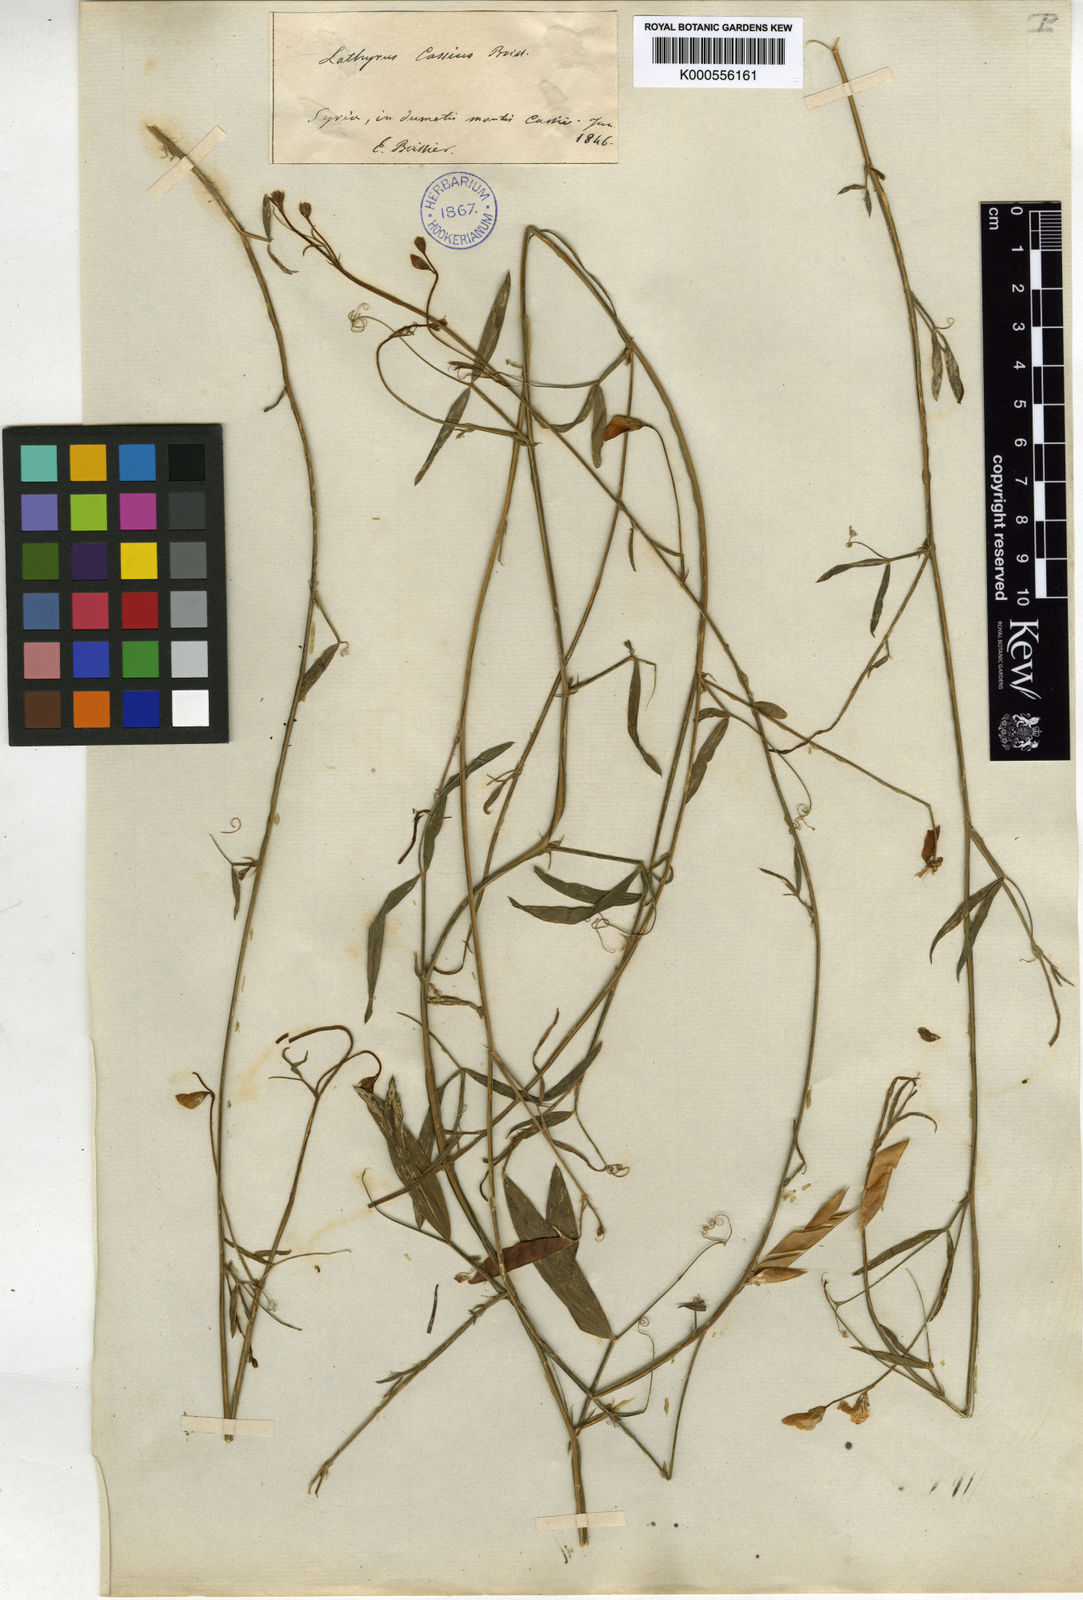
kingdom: Plantae
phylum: Tracheophyta
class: Magnoliopsida
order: Fabales
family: Fabaceae
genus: Lathyrus
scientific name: Lathyrus cassius
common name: Sweet pea
